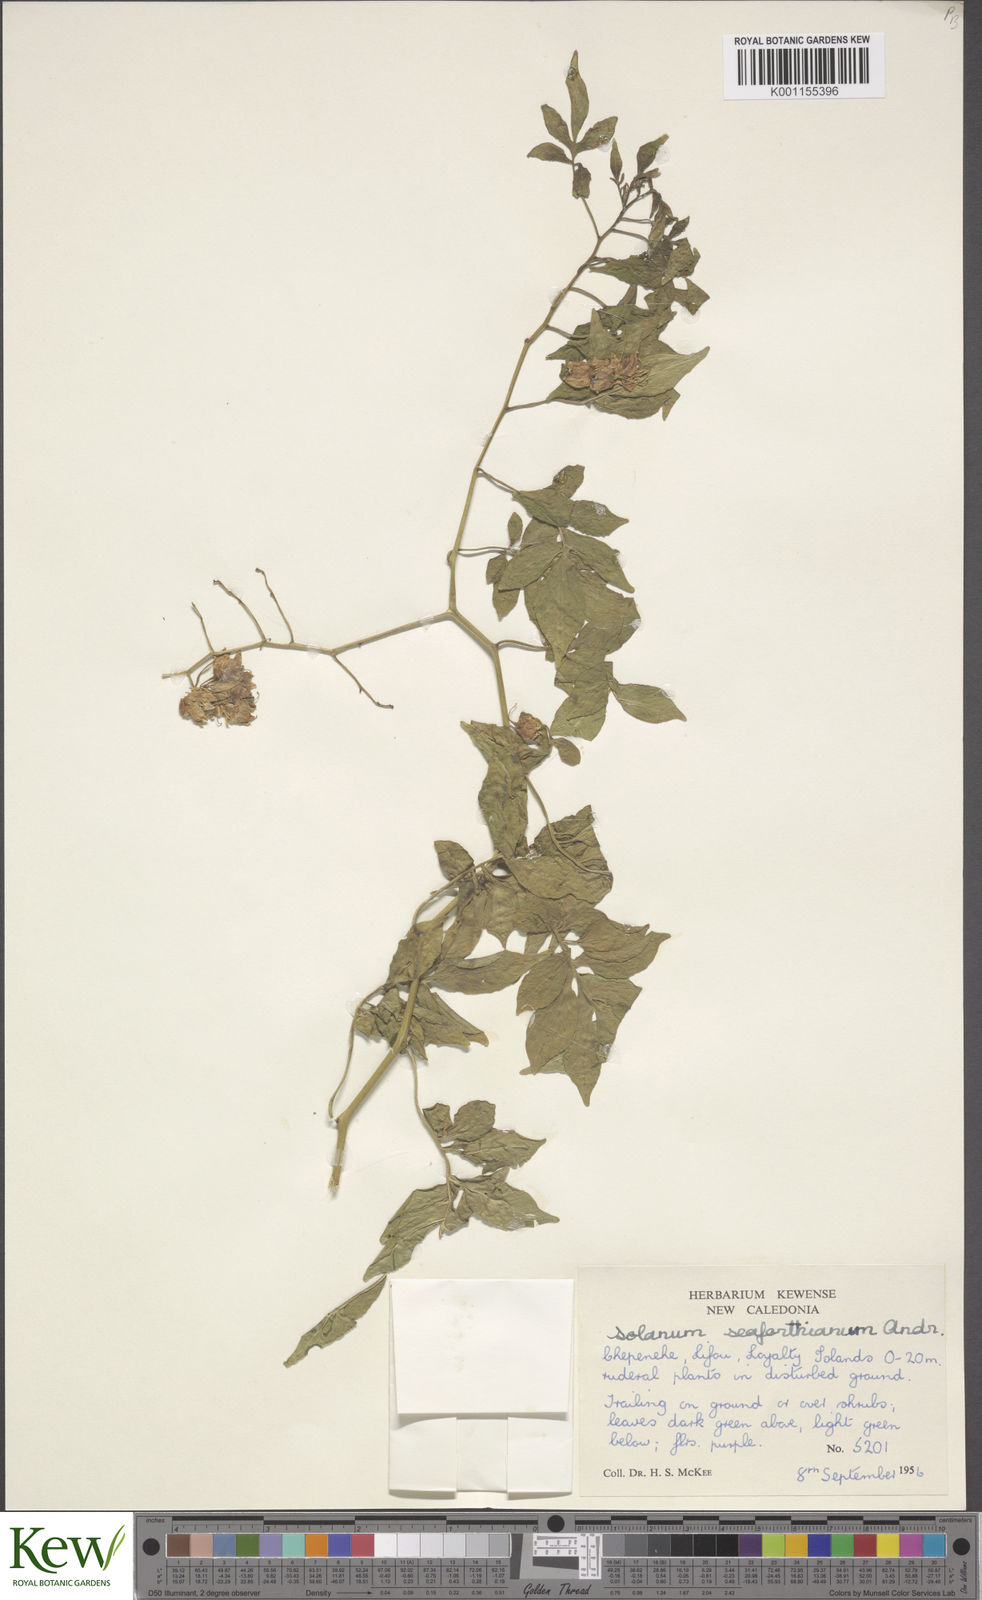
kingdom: Plantae
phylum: Tracheophyta
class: Magnoliopsida
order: Solanales
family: Solanaceae
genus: Solanum
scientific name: Solanum seaforthianum
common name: Brazilian nightshade
